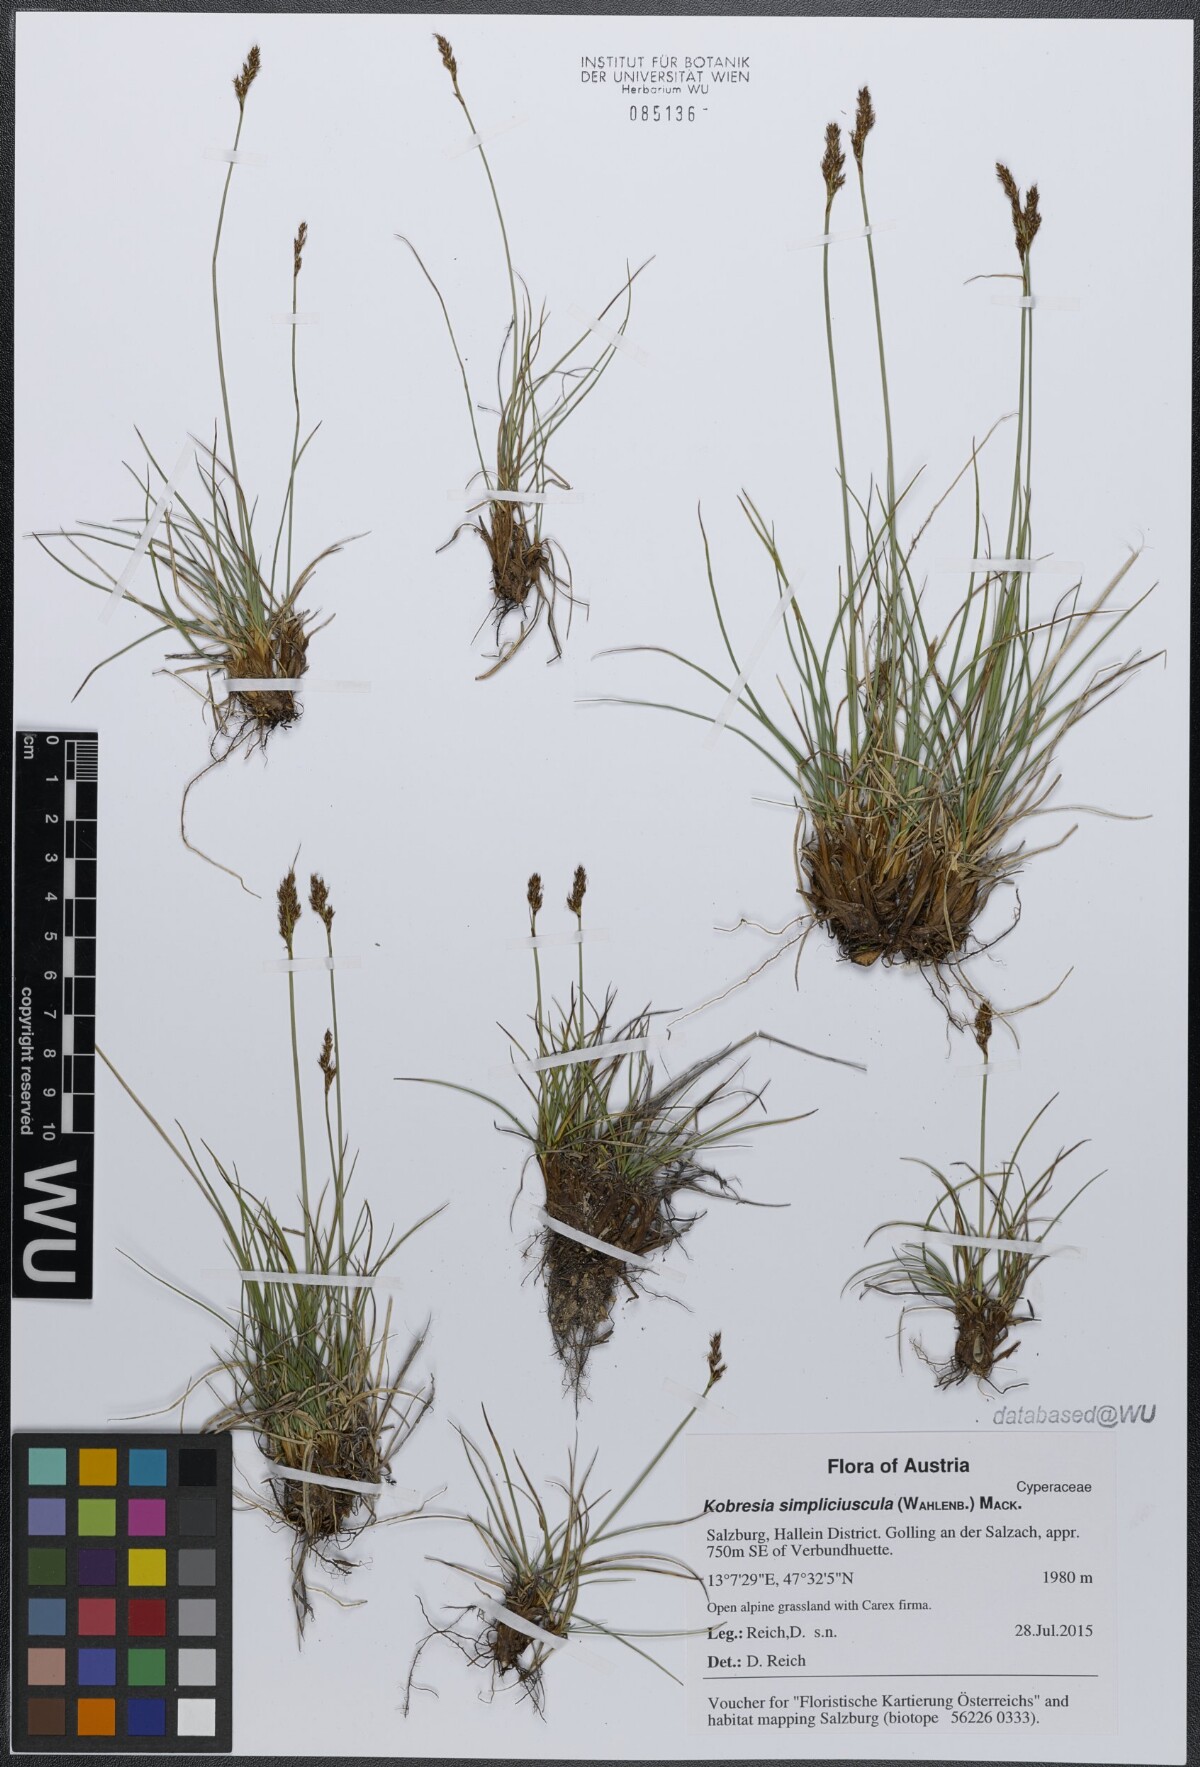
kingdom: Plantae
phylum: Tracheophyta
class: Liliopsida
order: Poales
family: Cyperaceae
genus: Carex
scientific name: Carex simpliciuscula
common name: Simple bog sedge
